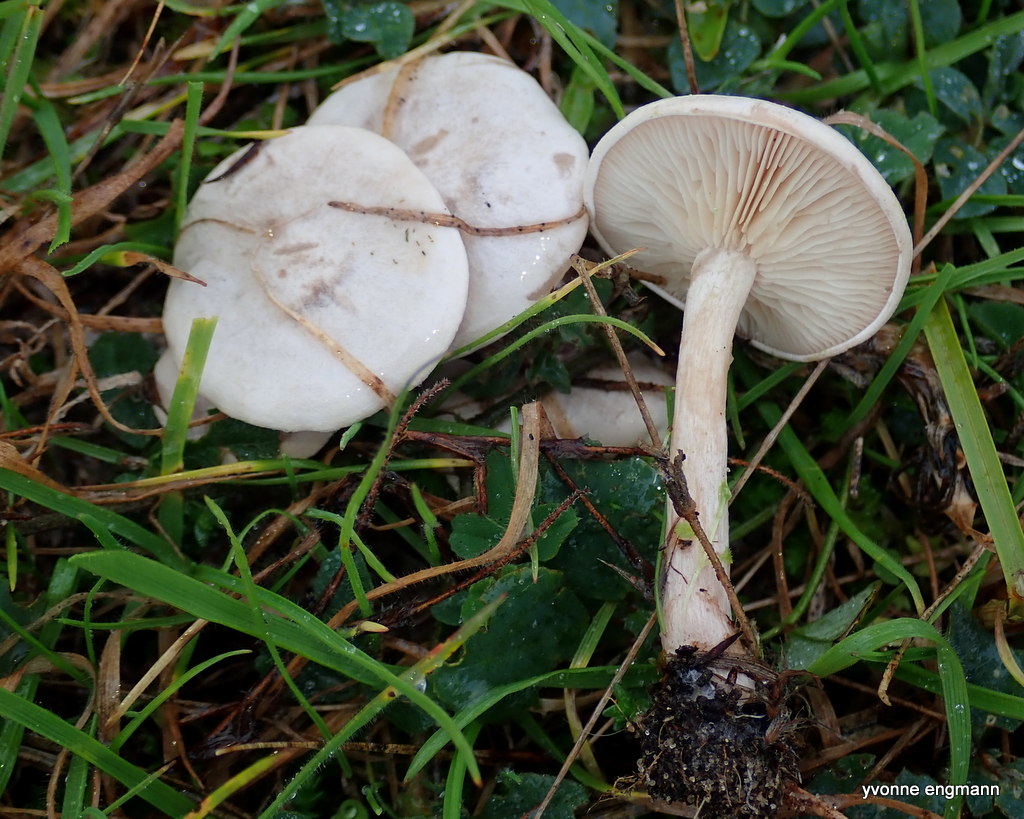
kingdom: Fungi
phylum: Basidiomycota
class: Agaricomycetes
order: Agaricales
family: Tricholomataceae
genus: Clitocybe
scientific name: Clitocybe rivulosa
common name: eng-tragthat
